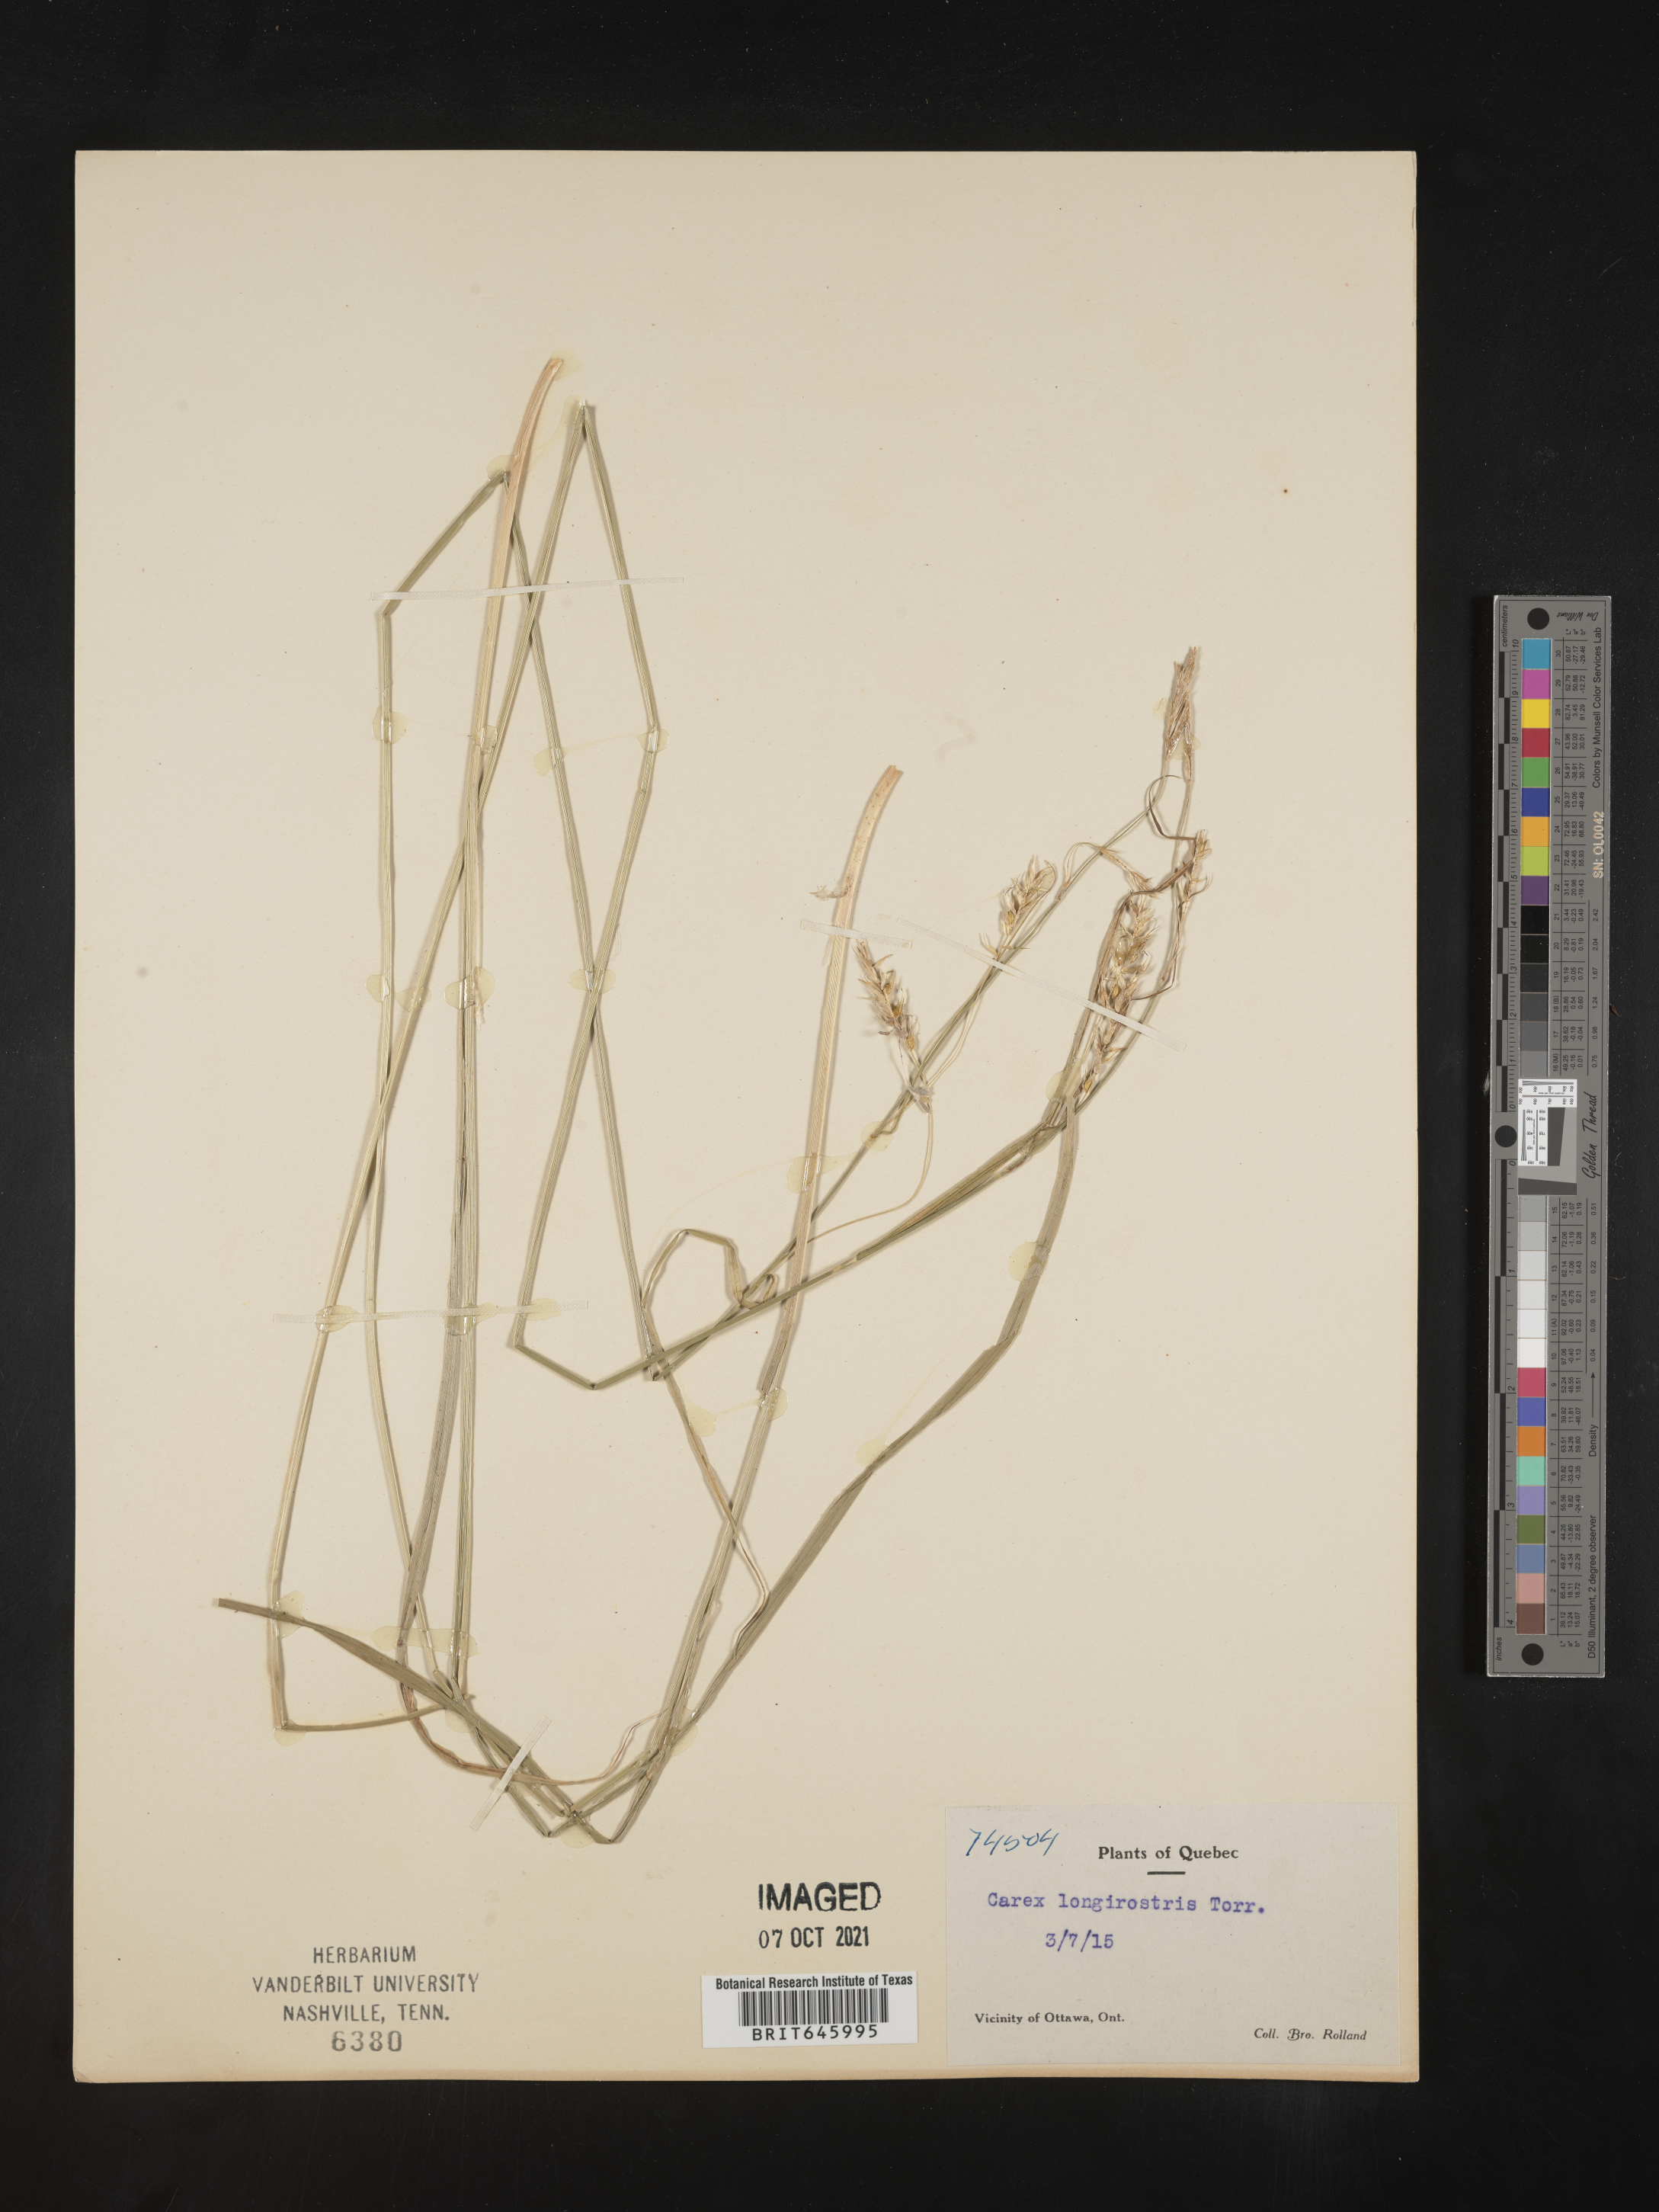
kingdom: Plantae
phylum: Tracheophyta
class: Liliopsida
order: Poales
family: Cyperaceae
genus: Carex
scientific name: Carex longirostris
